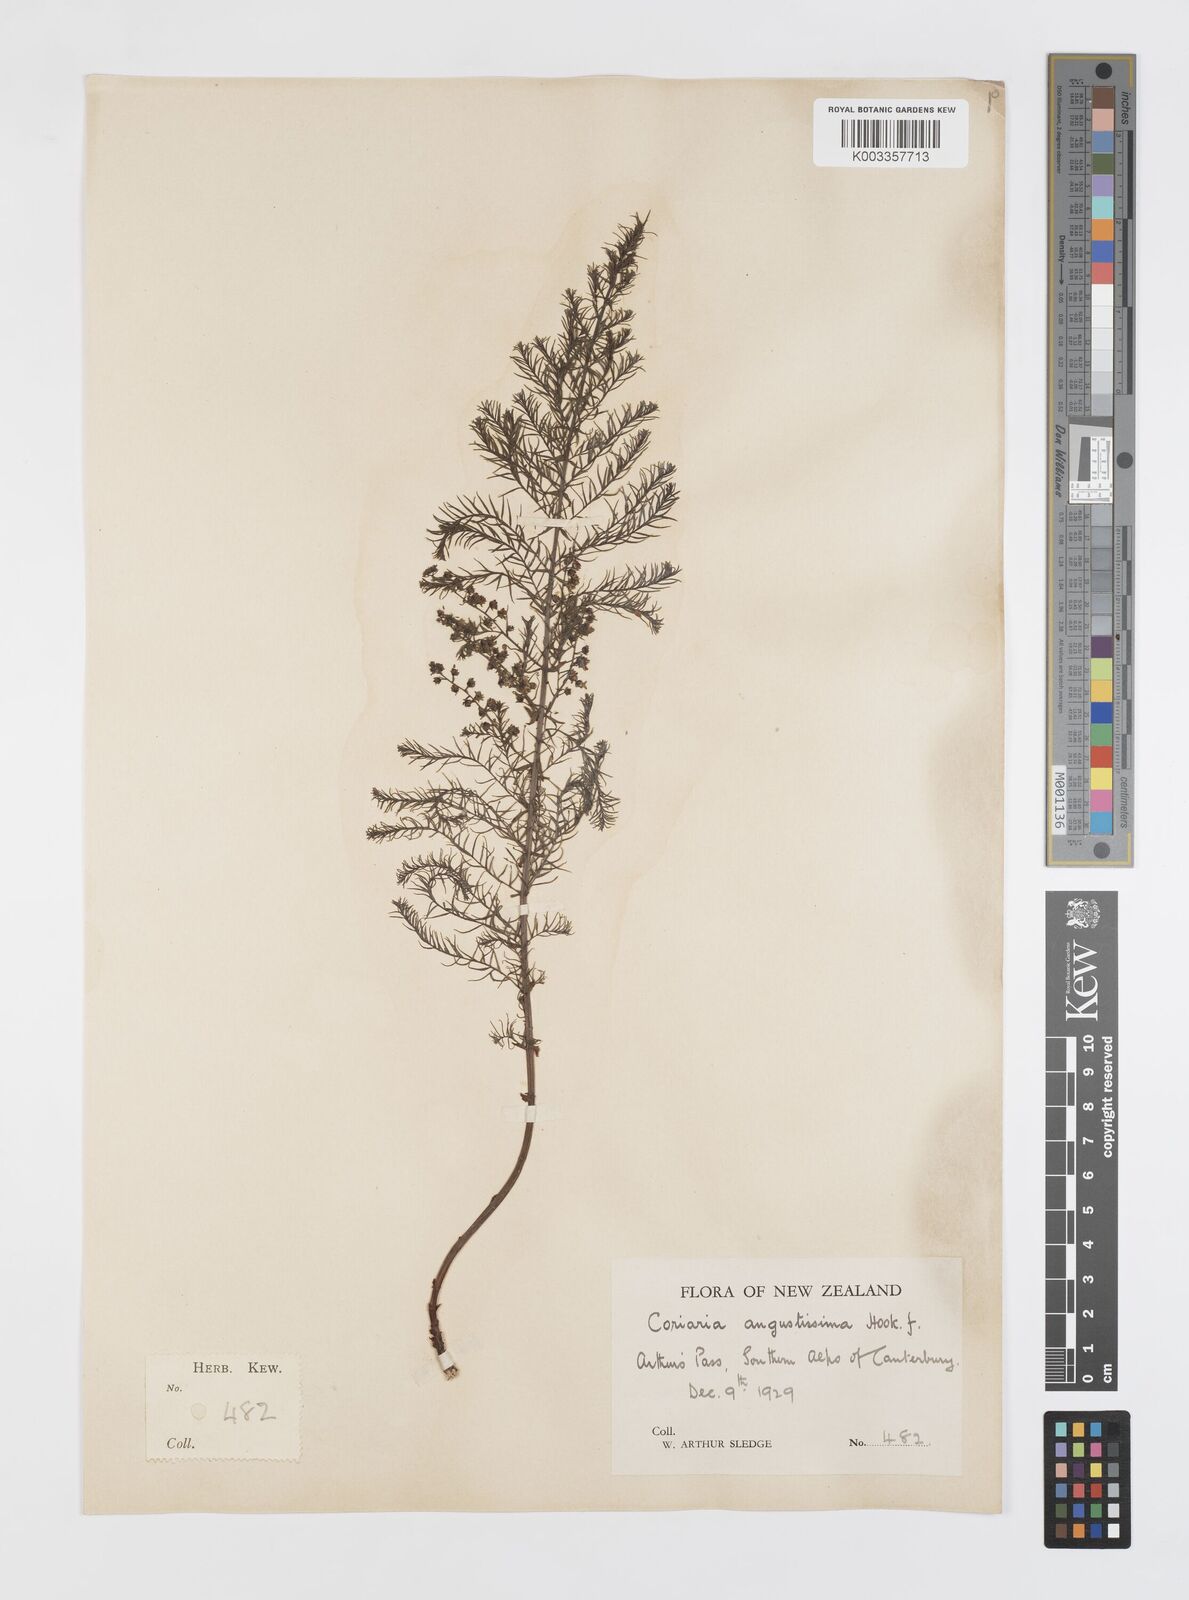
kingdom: Plantae
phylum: Tracheophyta
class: Magnoliopsida
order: Cucurbitales
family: Coriariaceae
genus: Coriaria
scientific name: Coriaria angustissima
